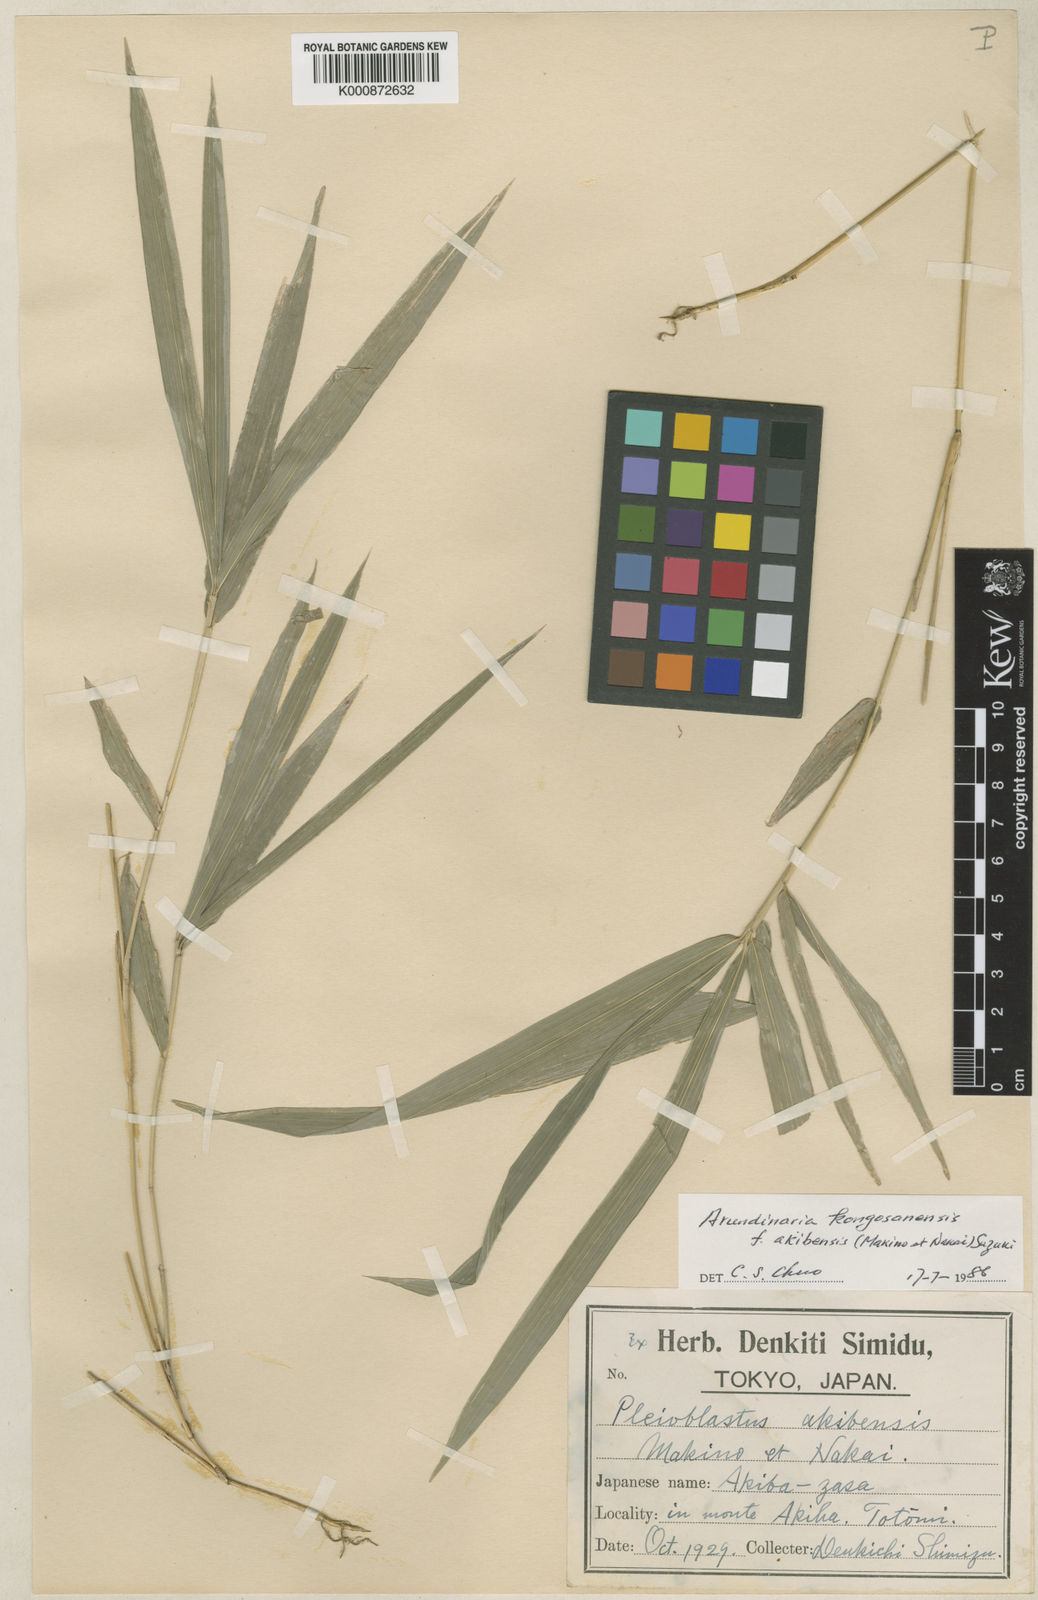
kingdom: Plantae
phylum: Tracheophyta
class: Liliopsida
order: Poales
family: Poaceae
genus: Pleioblastus
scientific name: Pleioblastus viridistriatus
